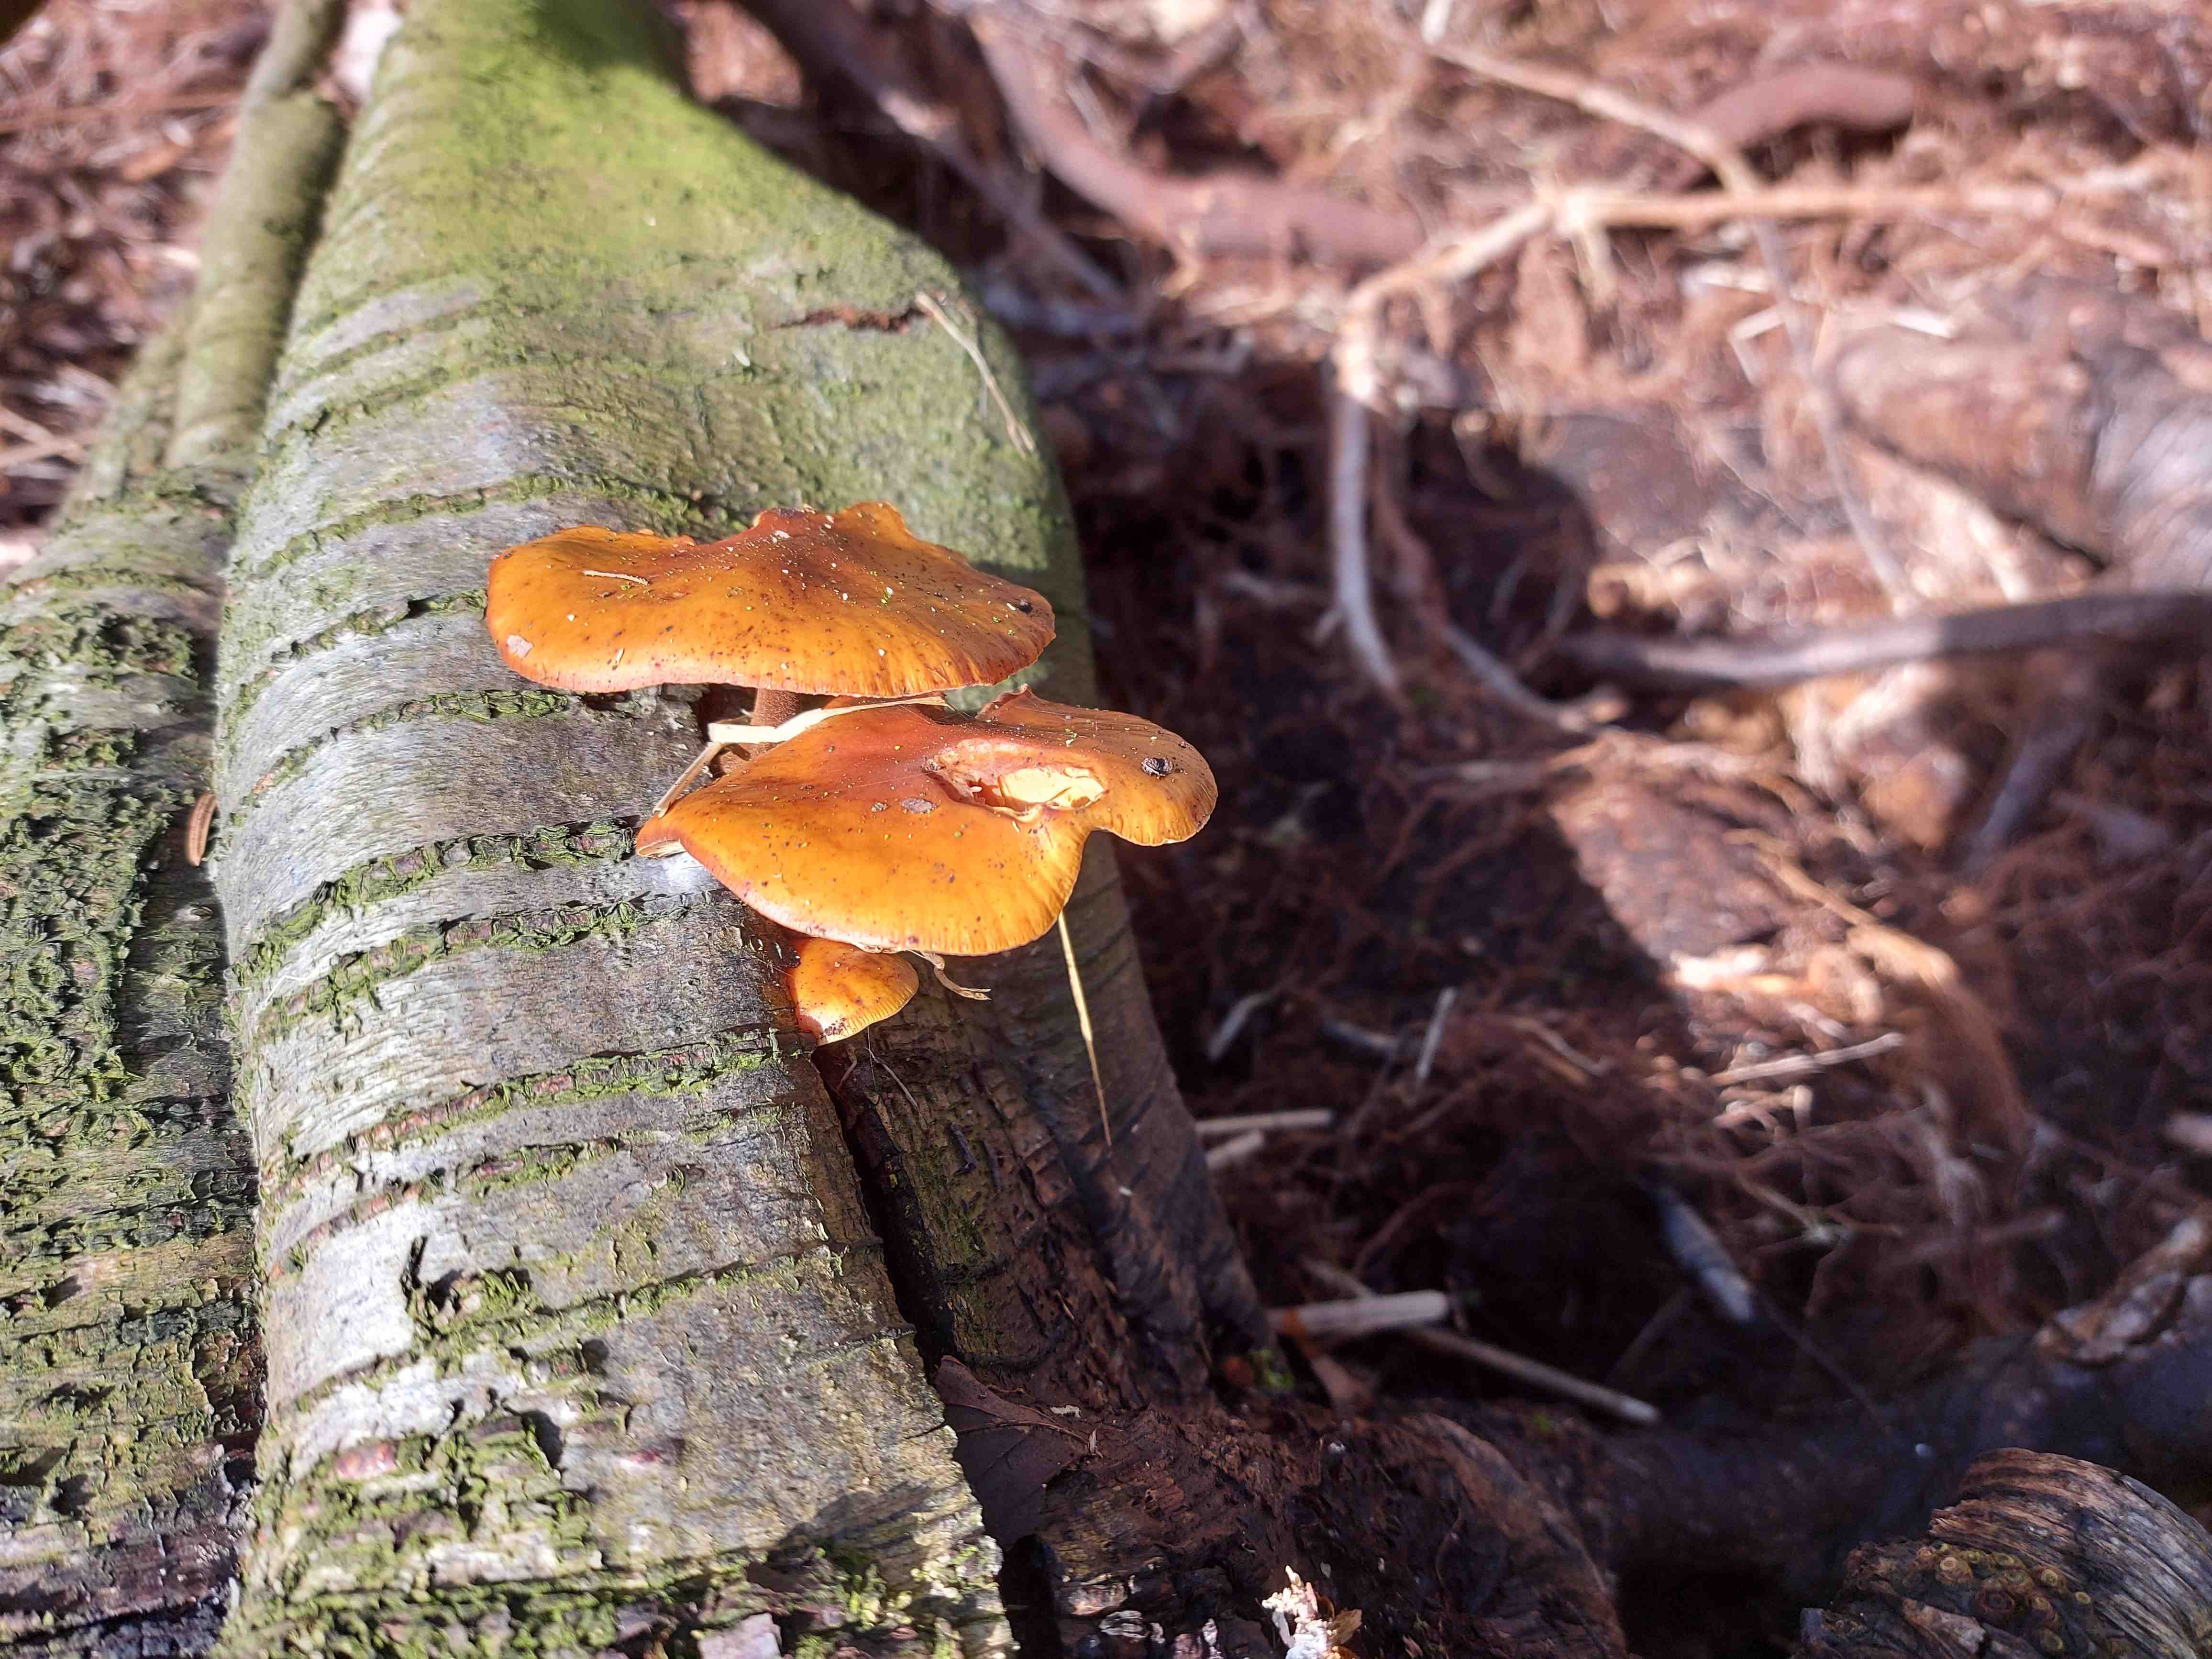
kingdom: Fungi
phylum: Basidiomycota
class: Agaricomycetes
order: Agaricales
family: Physalacriaceae
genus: Flammulina
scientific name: Flammulina velutipes
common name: gul fløjlsfod
